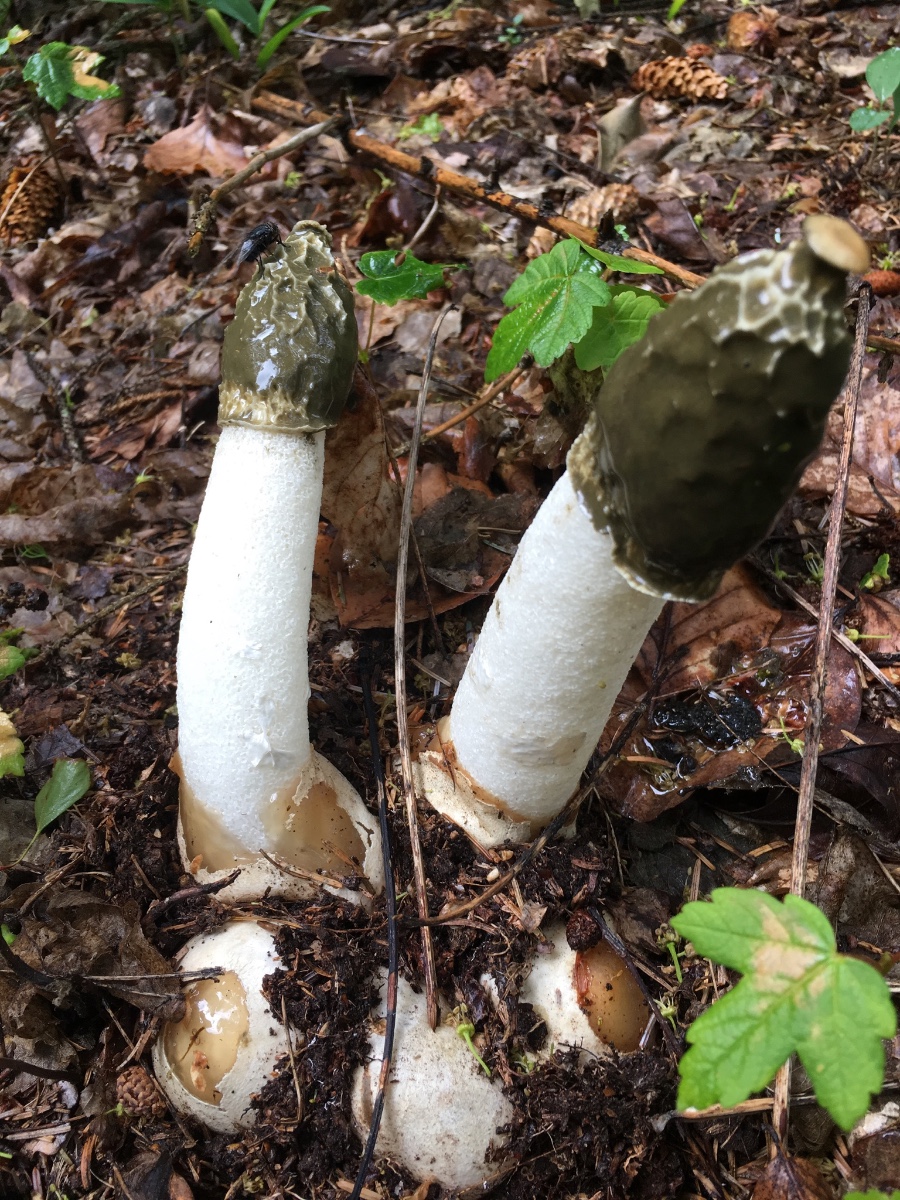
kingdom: Fungi
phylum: Basidiomycota
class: Agaricomycetes
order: Phallales
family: Phallaceae
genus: Phallus
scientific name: Phallus impudicus
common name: almindelig stinksvamp
